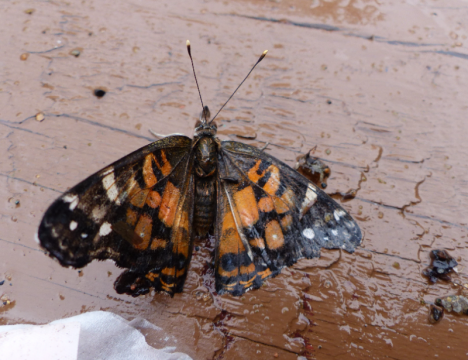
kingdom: Animalia
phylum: Arthropoda
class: Insecta
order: Lepidoptera
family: Nymphalidae
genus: Vanessa
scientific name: Vanessa virginiensis
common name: American Lady
